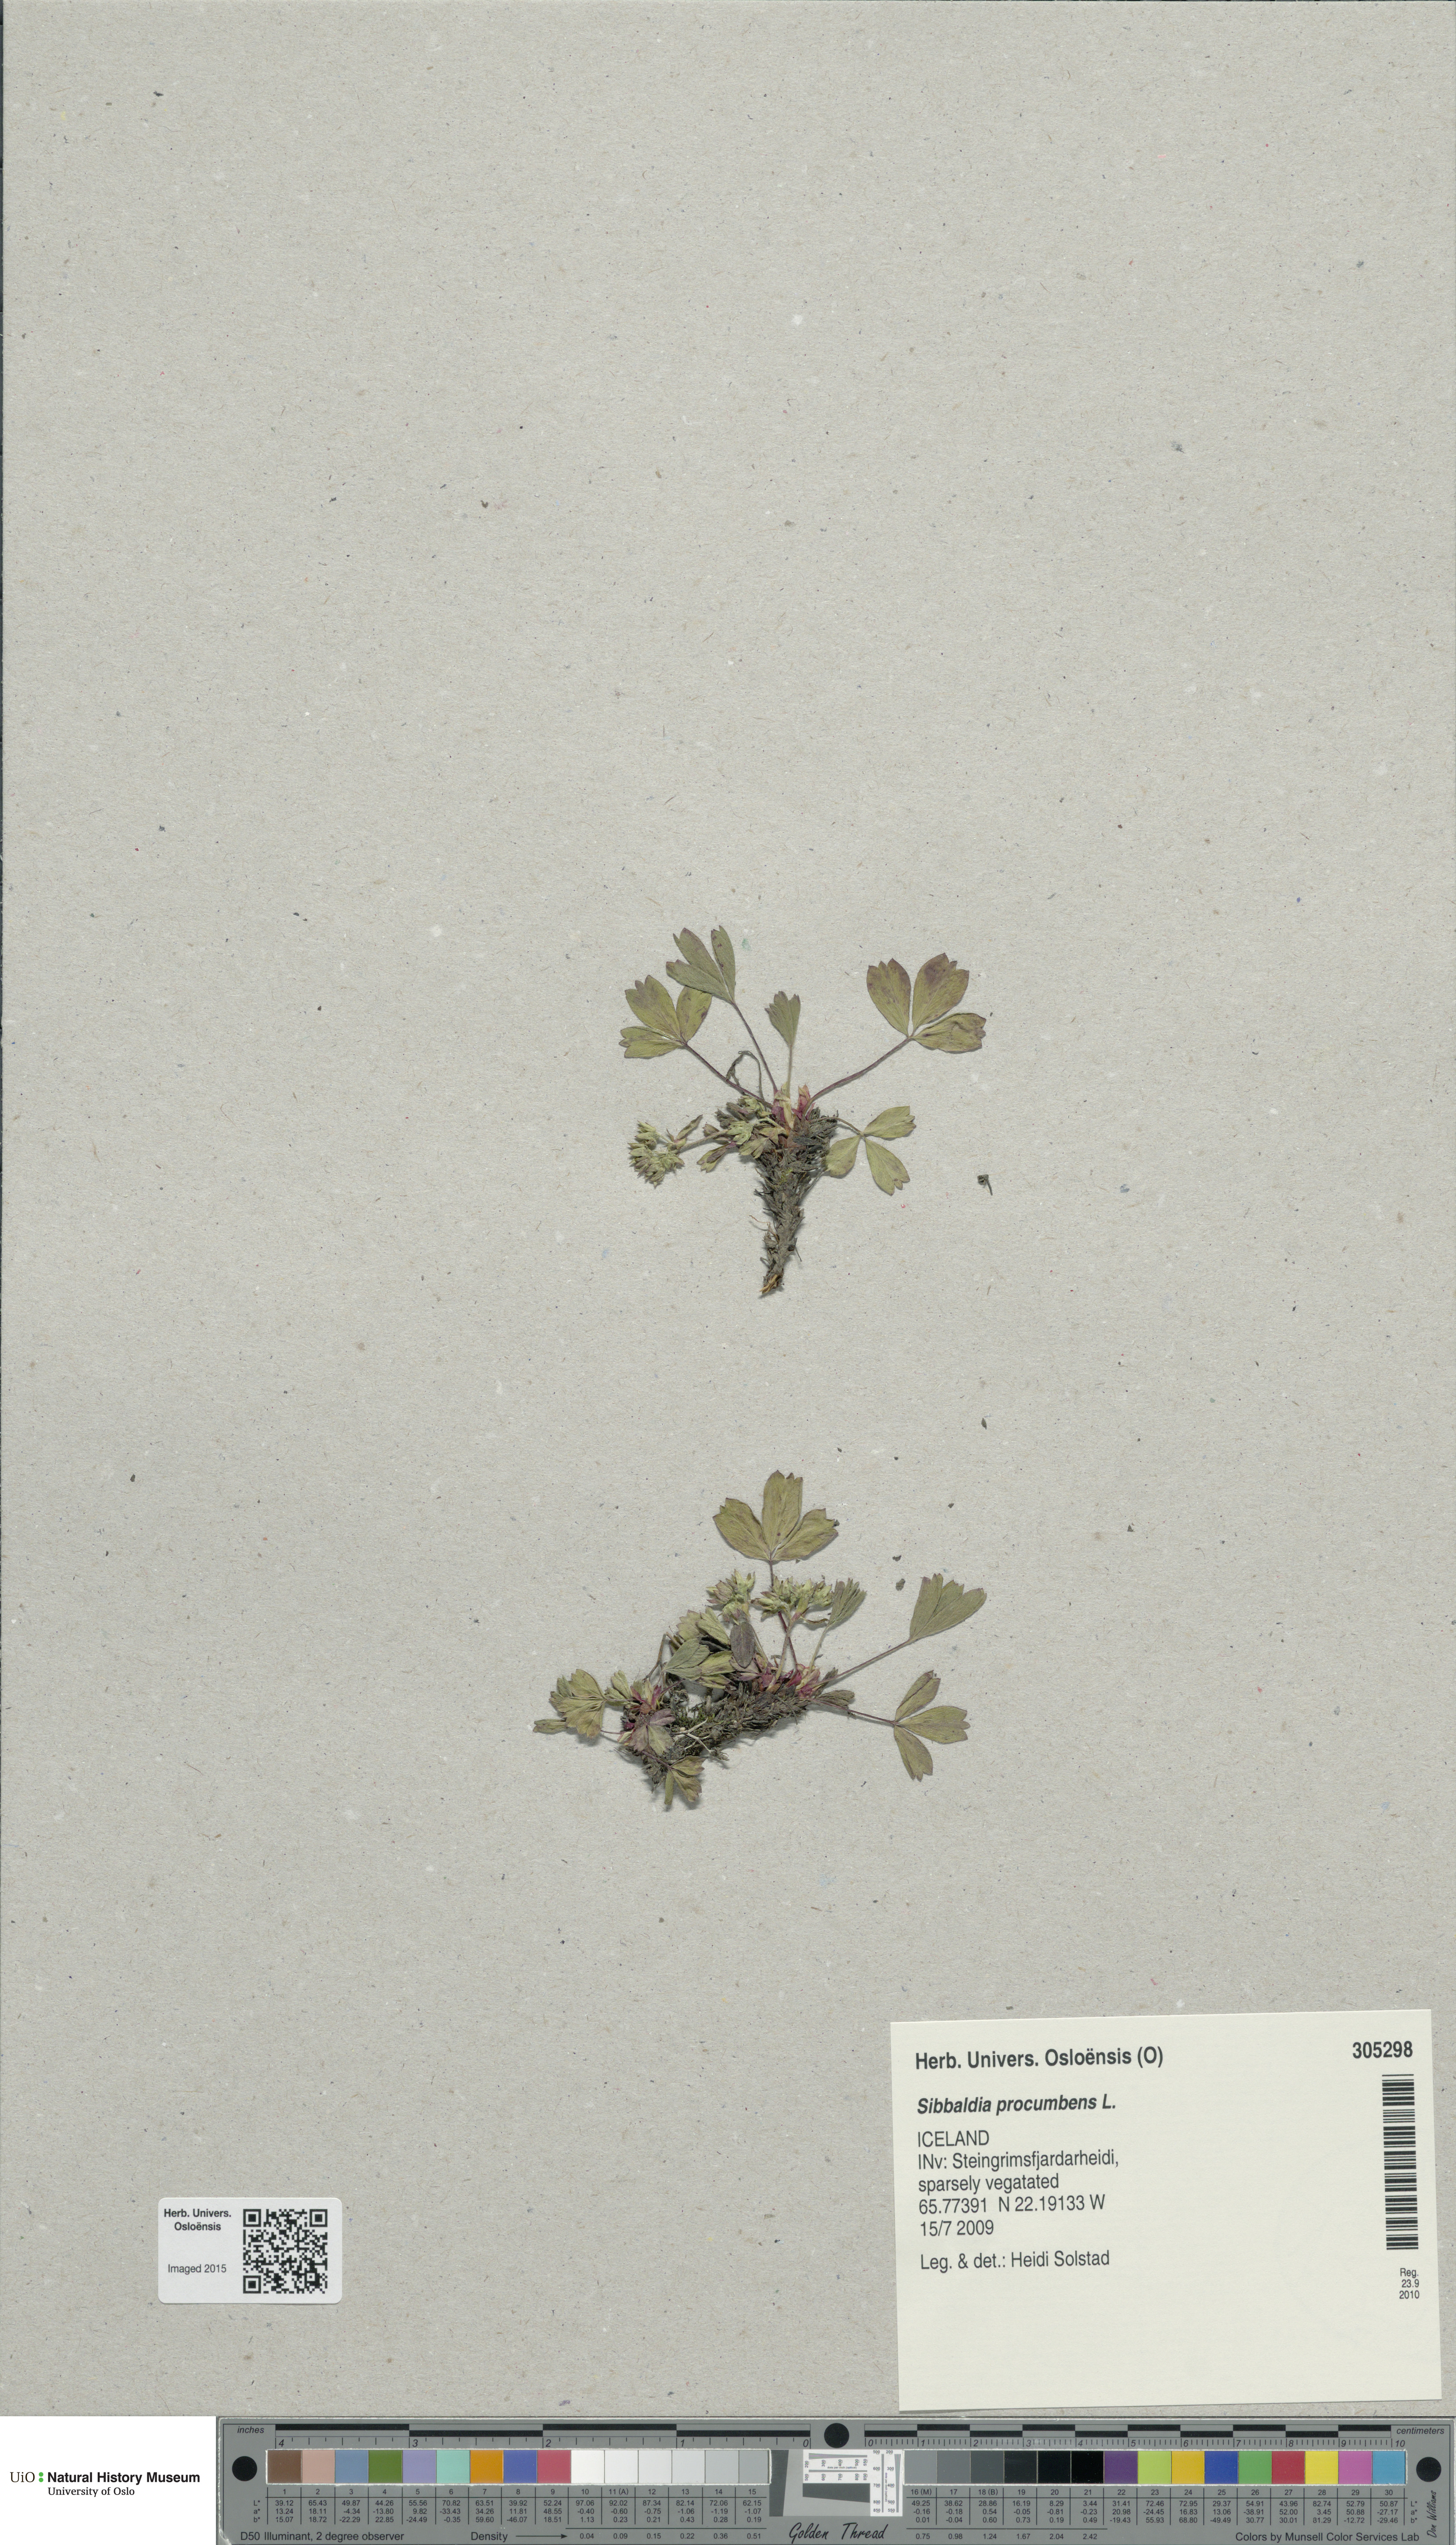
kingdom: Plantae
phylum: Tracheophyta
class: Magnoliopsida
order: Rosales
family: Rosaceae
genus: Sibbaldia
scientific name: Sibbaldia procumbens
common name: Creeping sibbaldia
